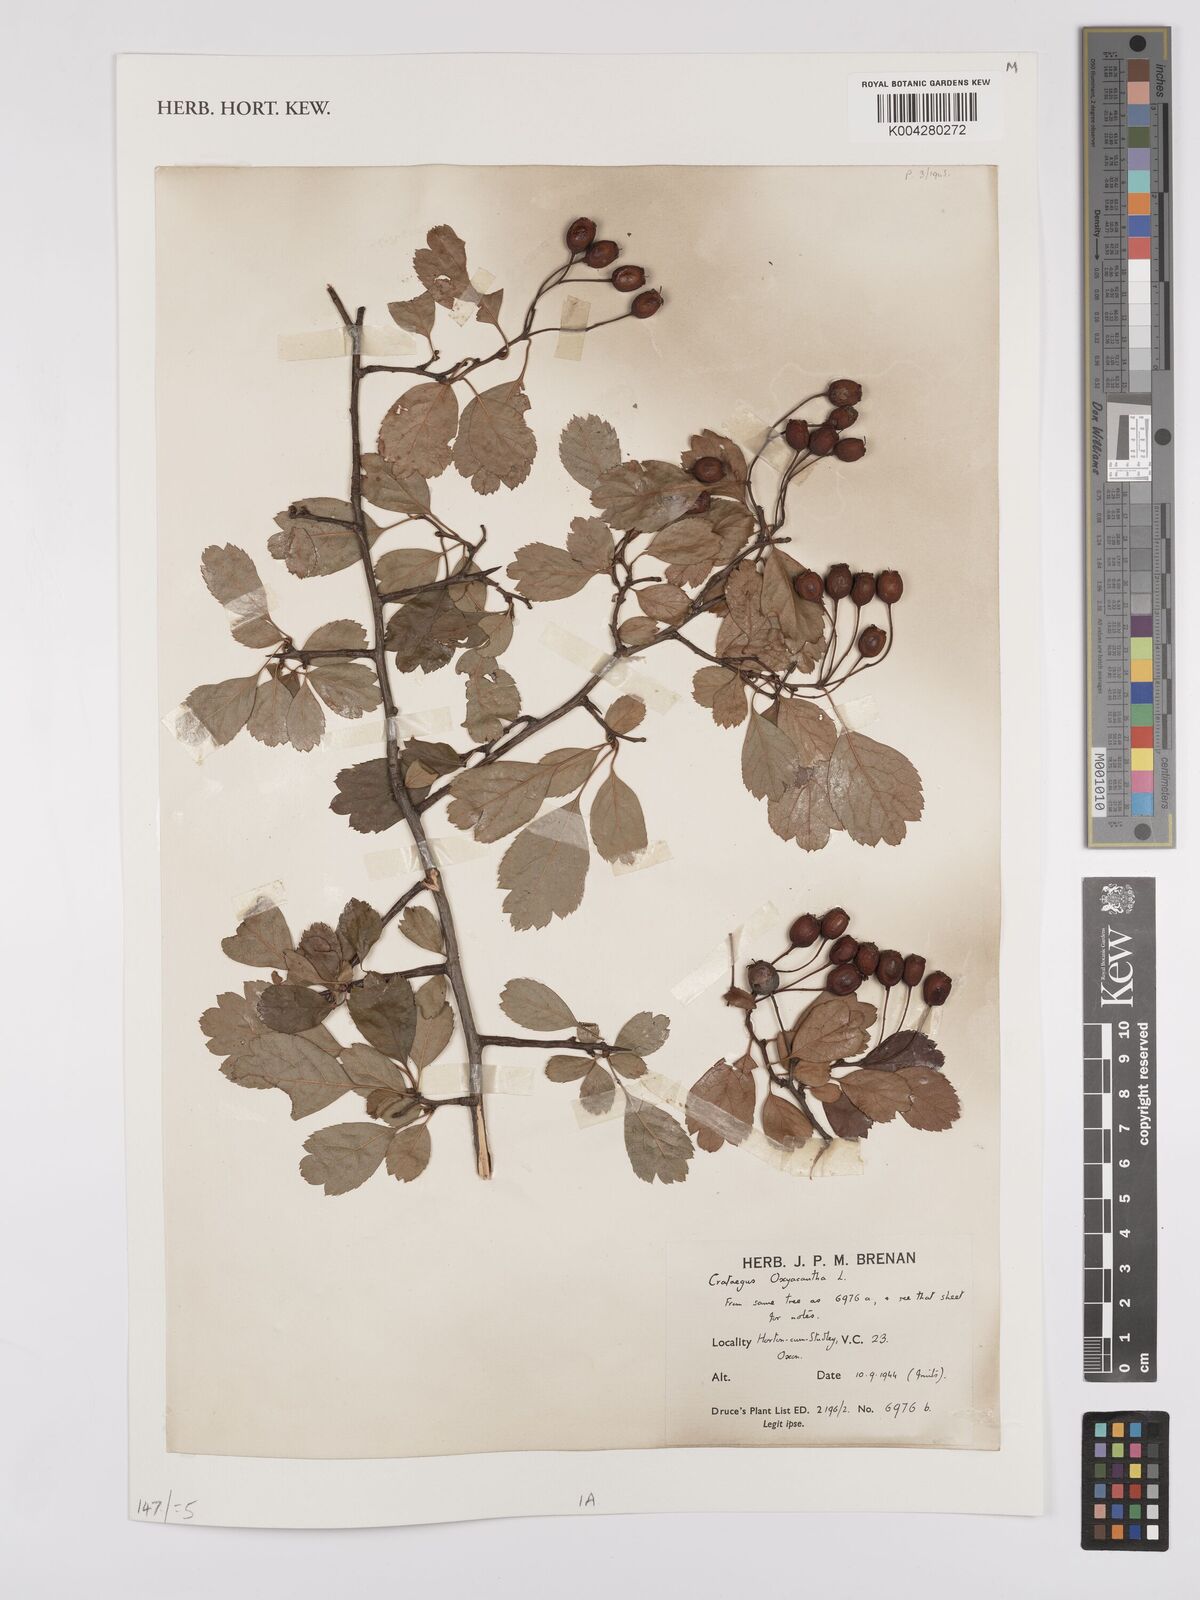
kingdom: Plantae
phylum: Tracheophyta
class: Magnoliopsida
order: Rosales
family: Rosaceae
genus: Crataegus
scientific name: Crataegus laevigata
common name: Midland hawthorn
